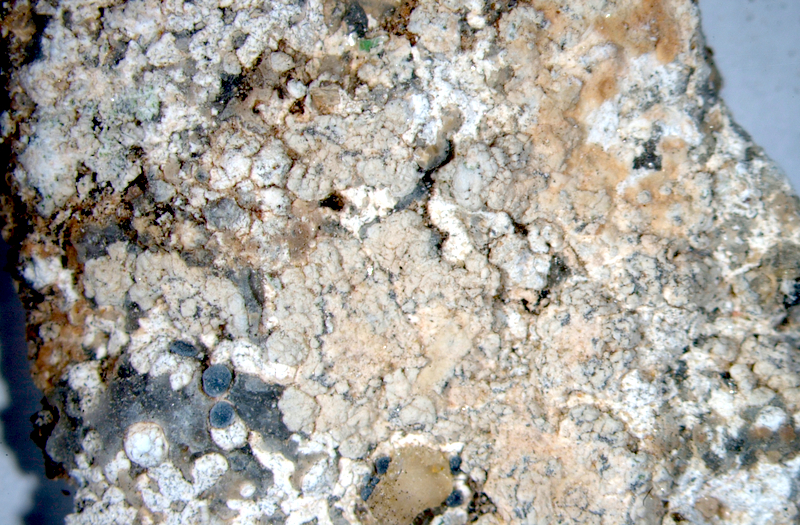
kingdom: Fungi
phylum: Ascomycota
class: Lecanoromycetes
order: Caliciales
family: Caliciaceae
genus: Buellia
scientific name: Buellia
